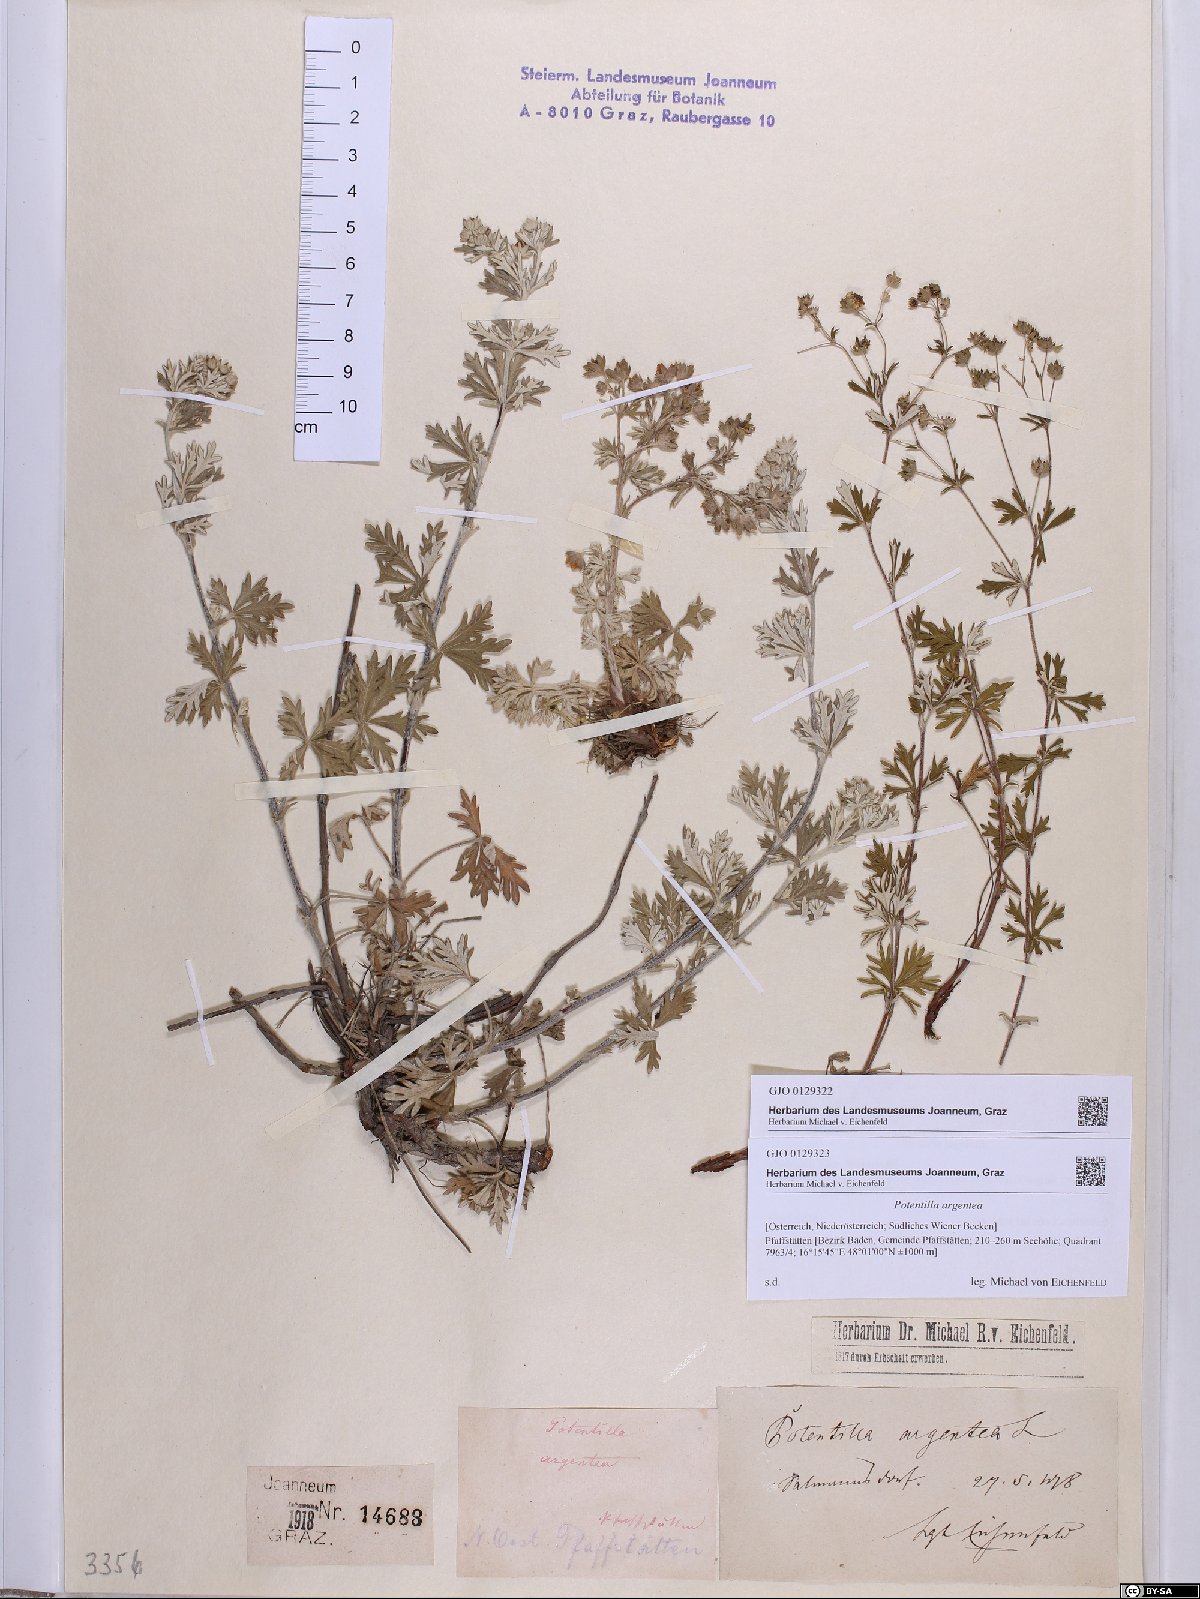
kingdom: Plantae
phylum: Tracheophyta
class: Magnoliopsida
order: Rosales
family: Rosaceae
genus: Potentilla
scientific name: Potentilla argentea
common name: Hoary cinquefoil
